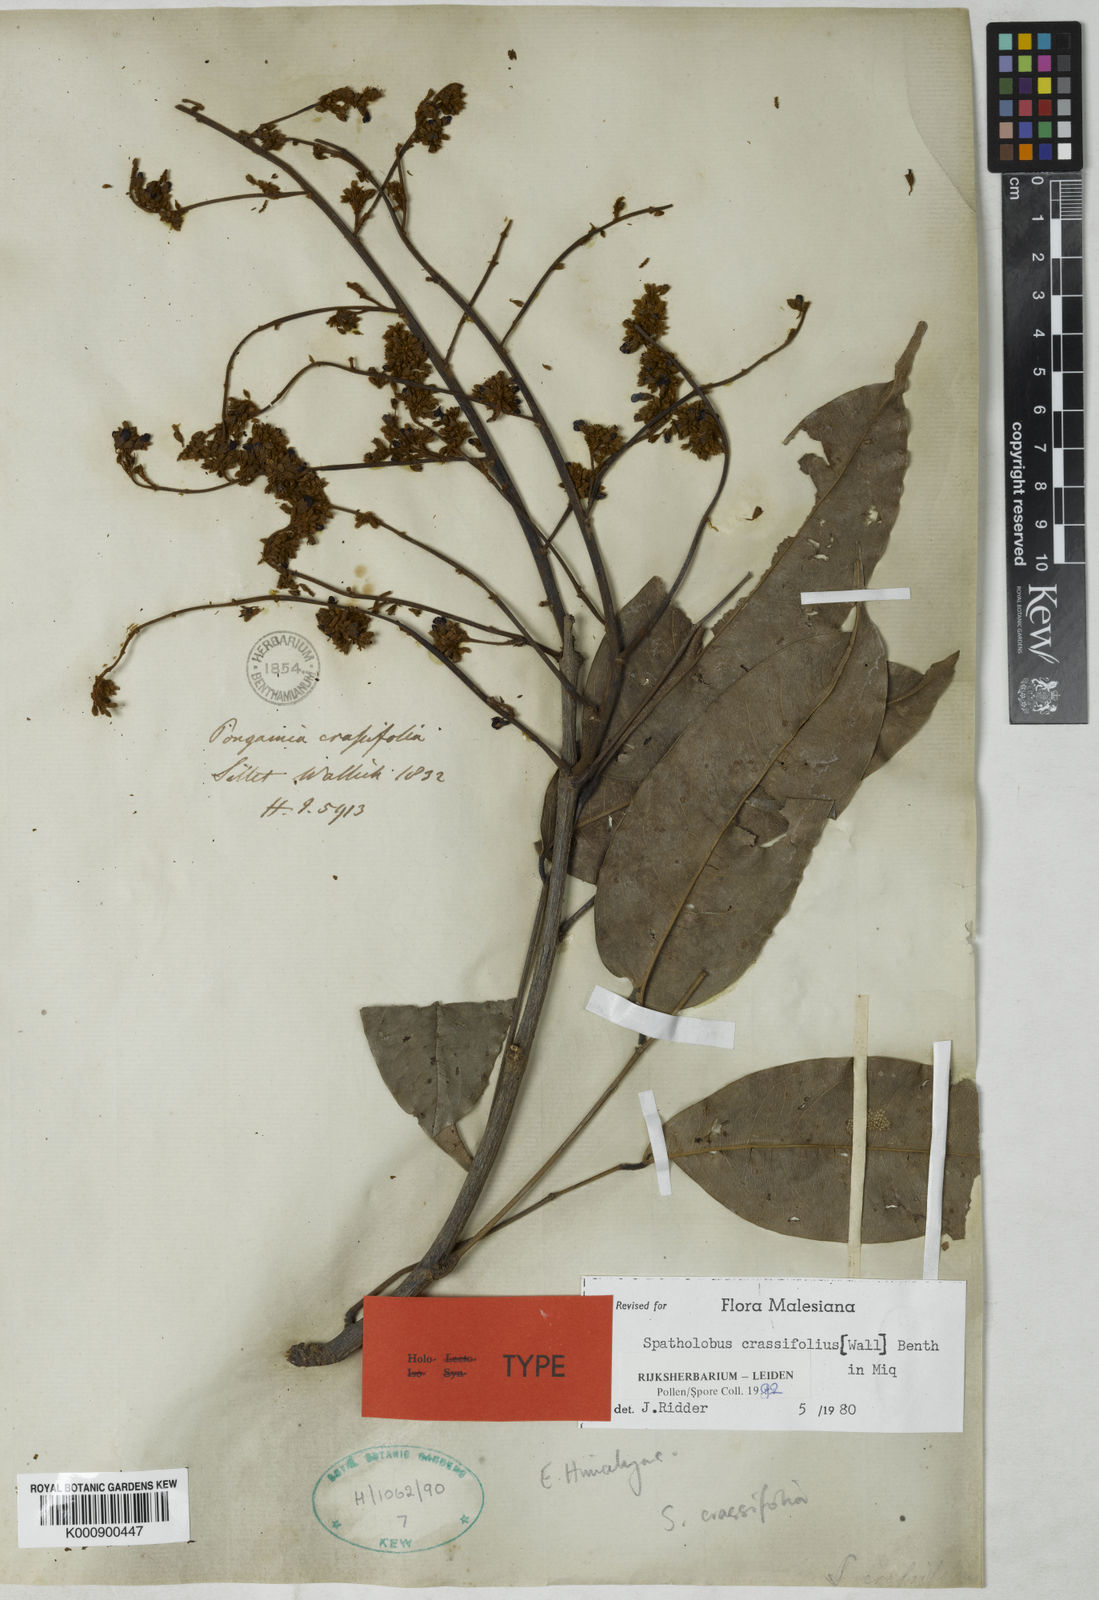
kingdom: Plantae
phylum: Tracheophyta
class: Magnoliopsida
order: Fabales
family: Fabaceae
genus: Spatholobus
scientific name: Spatholobus crassifolius
